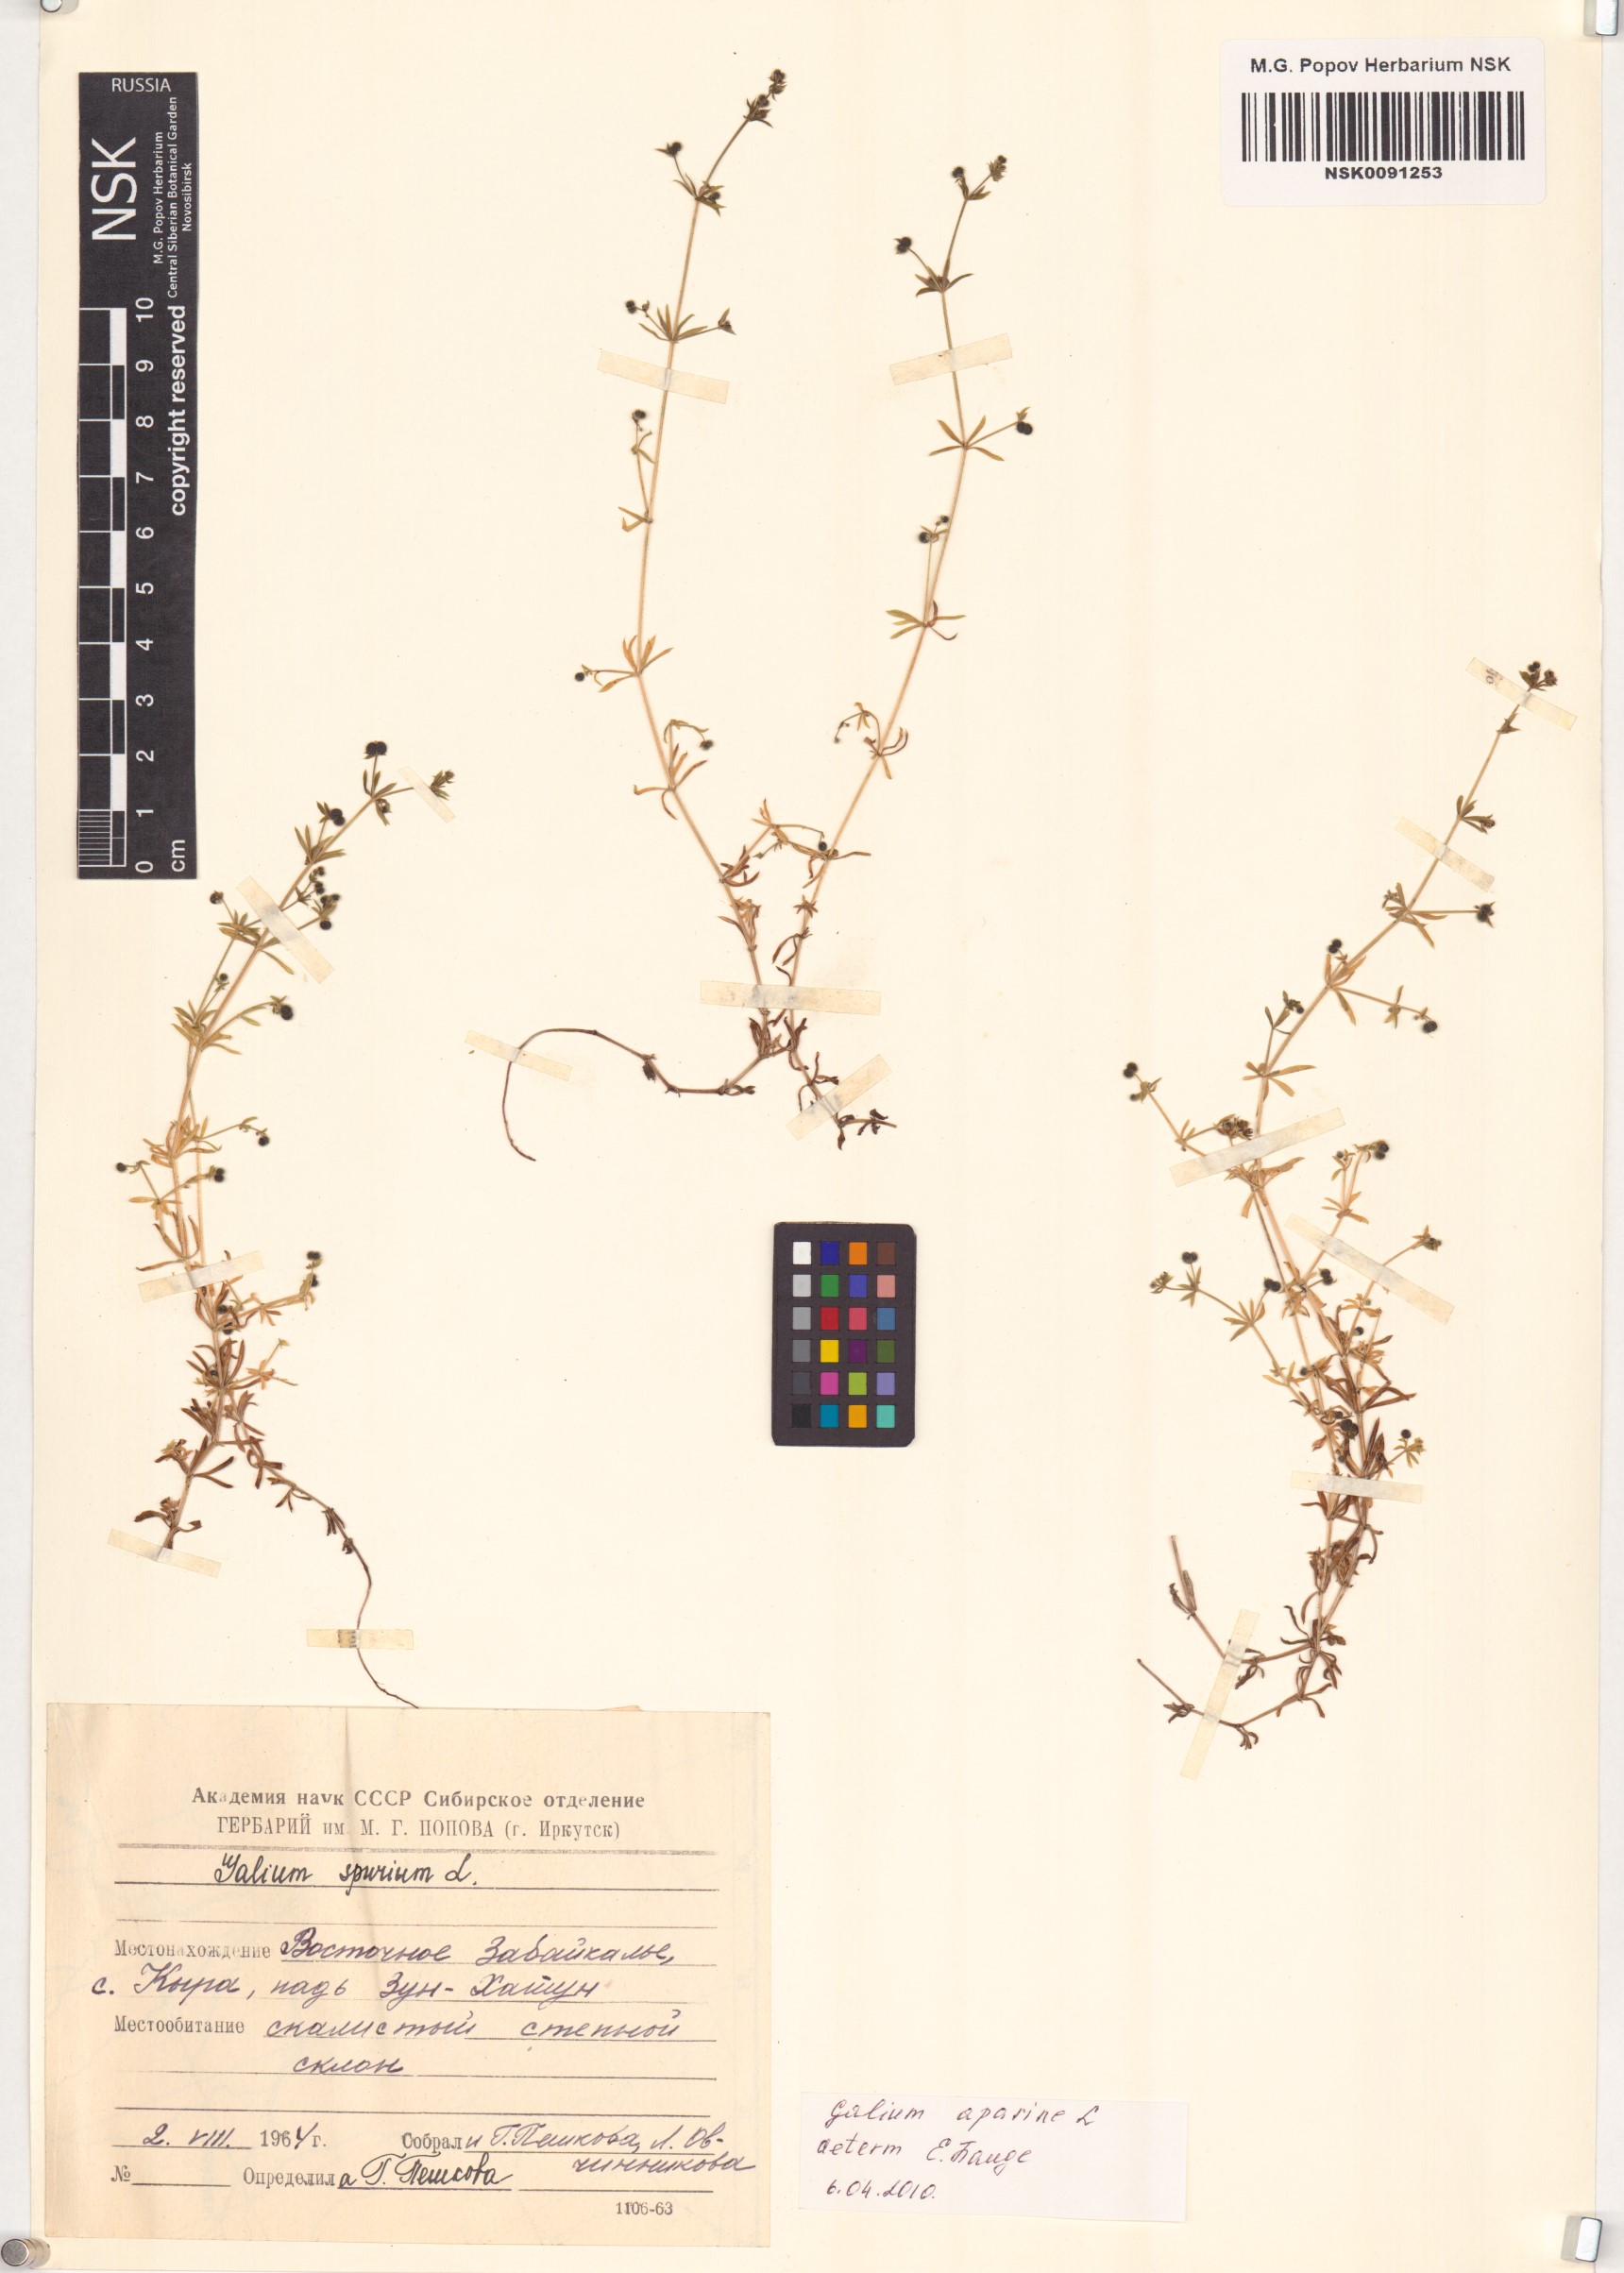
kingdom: Plantae
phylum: Tracheophyta
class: Magnoliopsida
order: Gentianales
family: Rubiaceae
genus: Galium
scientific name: Galium aparine
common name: Cleavers
